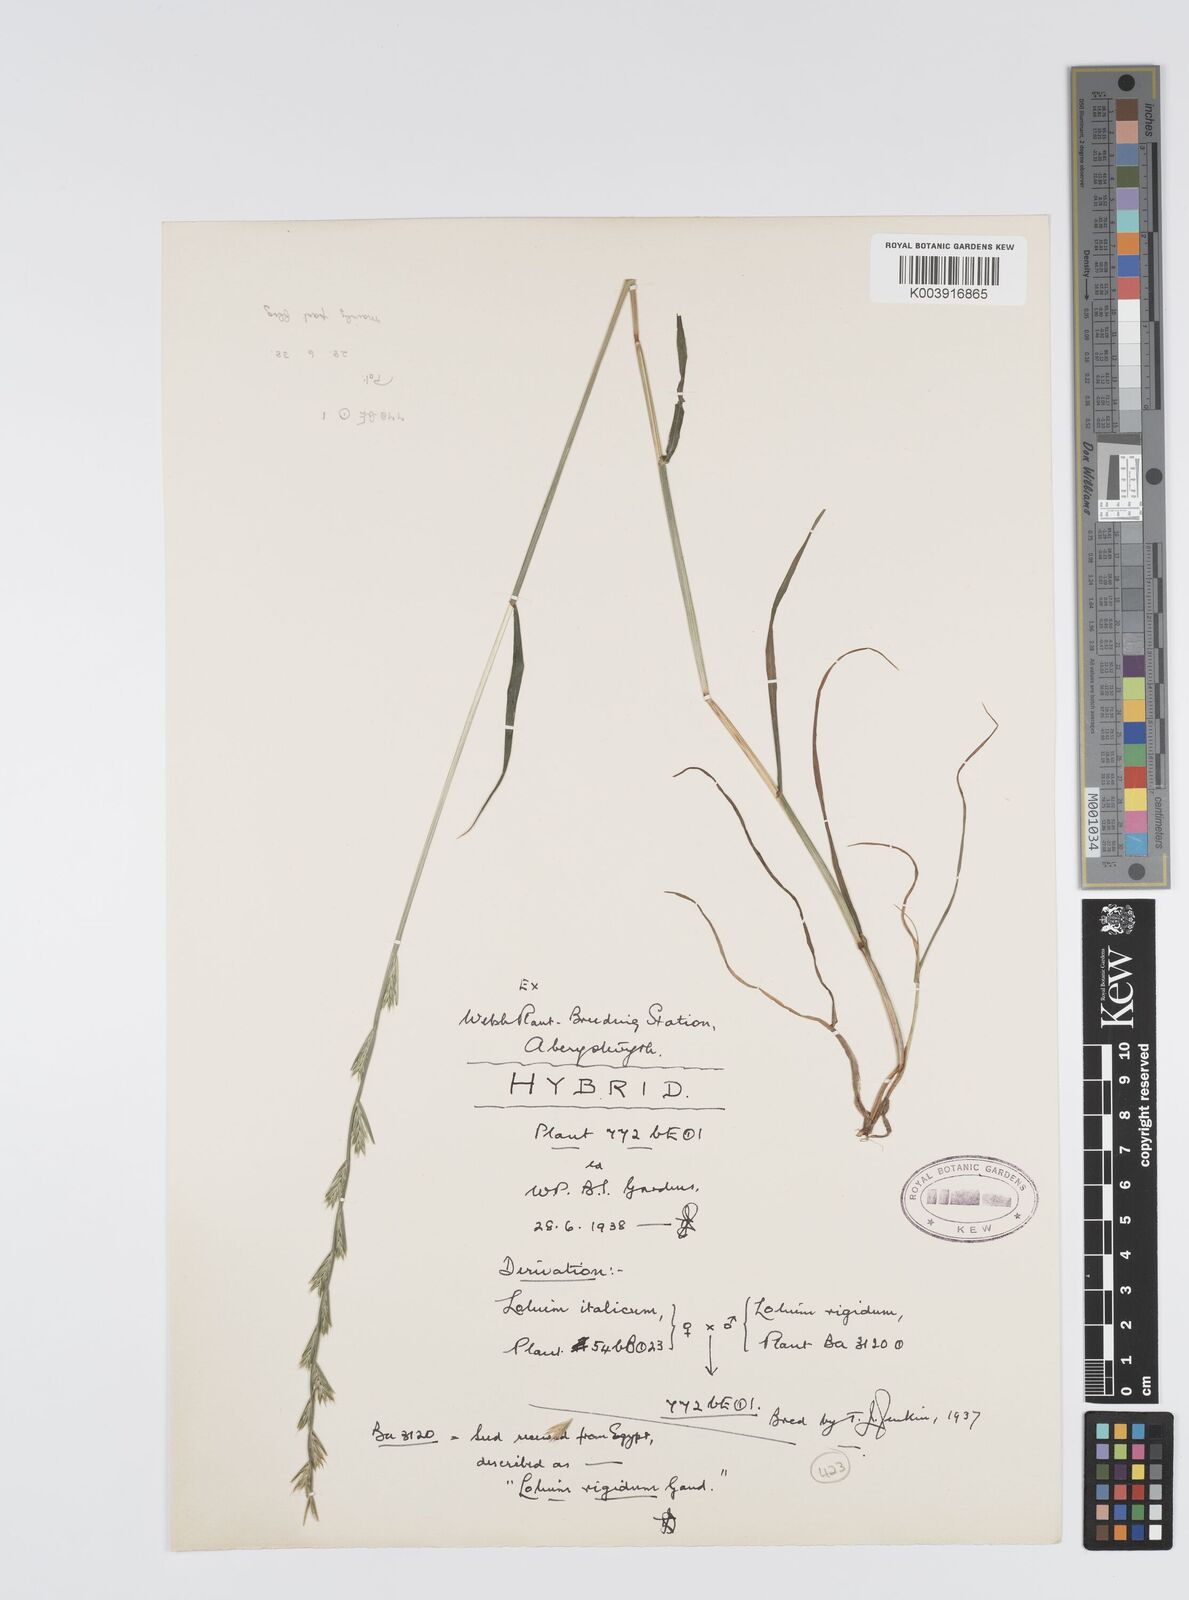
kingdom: Plantae
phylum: Tracheophyta
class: Liliopsida
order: Poales
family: Poaceae
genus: Lolium
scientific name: Lolium multiflorum
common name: Annual ryegrass
